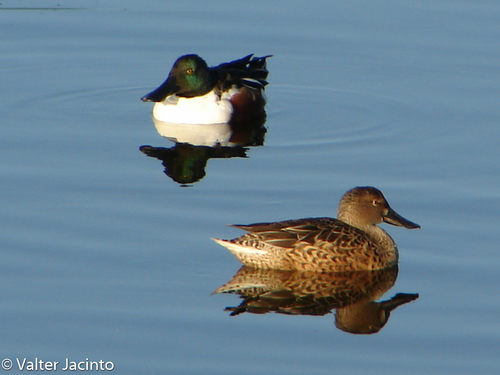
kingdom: Animalia
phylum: Chordata
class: Aves
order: Anseriformes
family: Anatidae
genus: Spatula
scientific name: Spatula clypeata
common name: Northern shoveler
